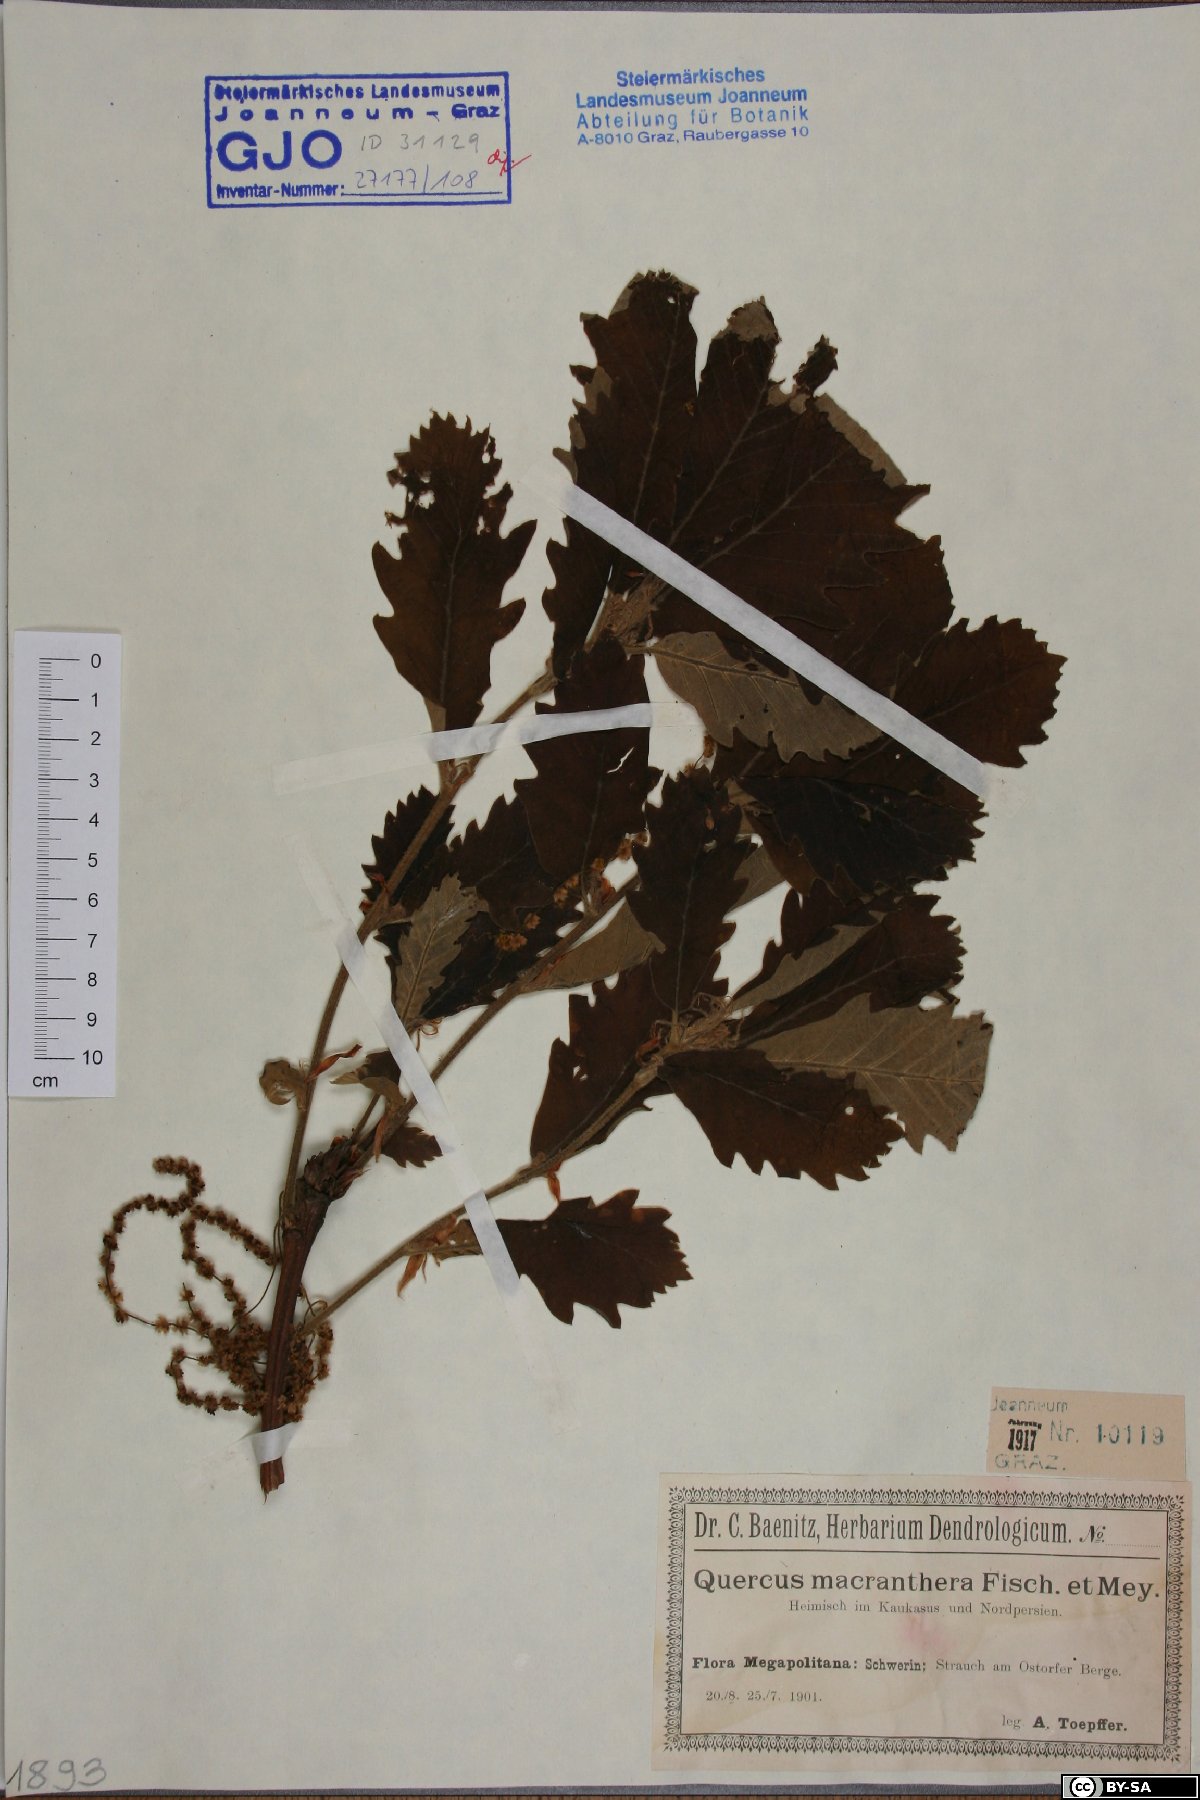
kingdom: Plantae
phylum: Tracheophyta
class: Magnoliopsida
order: Fagales
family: Fagaceae
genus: Quercus
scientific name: Quercus macranthera
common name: Caucasian oak
